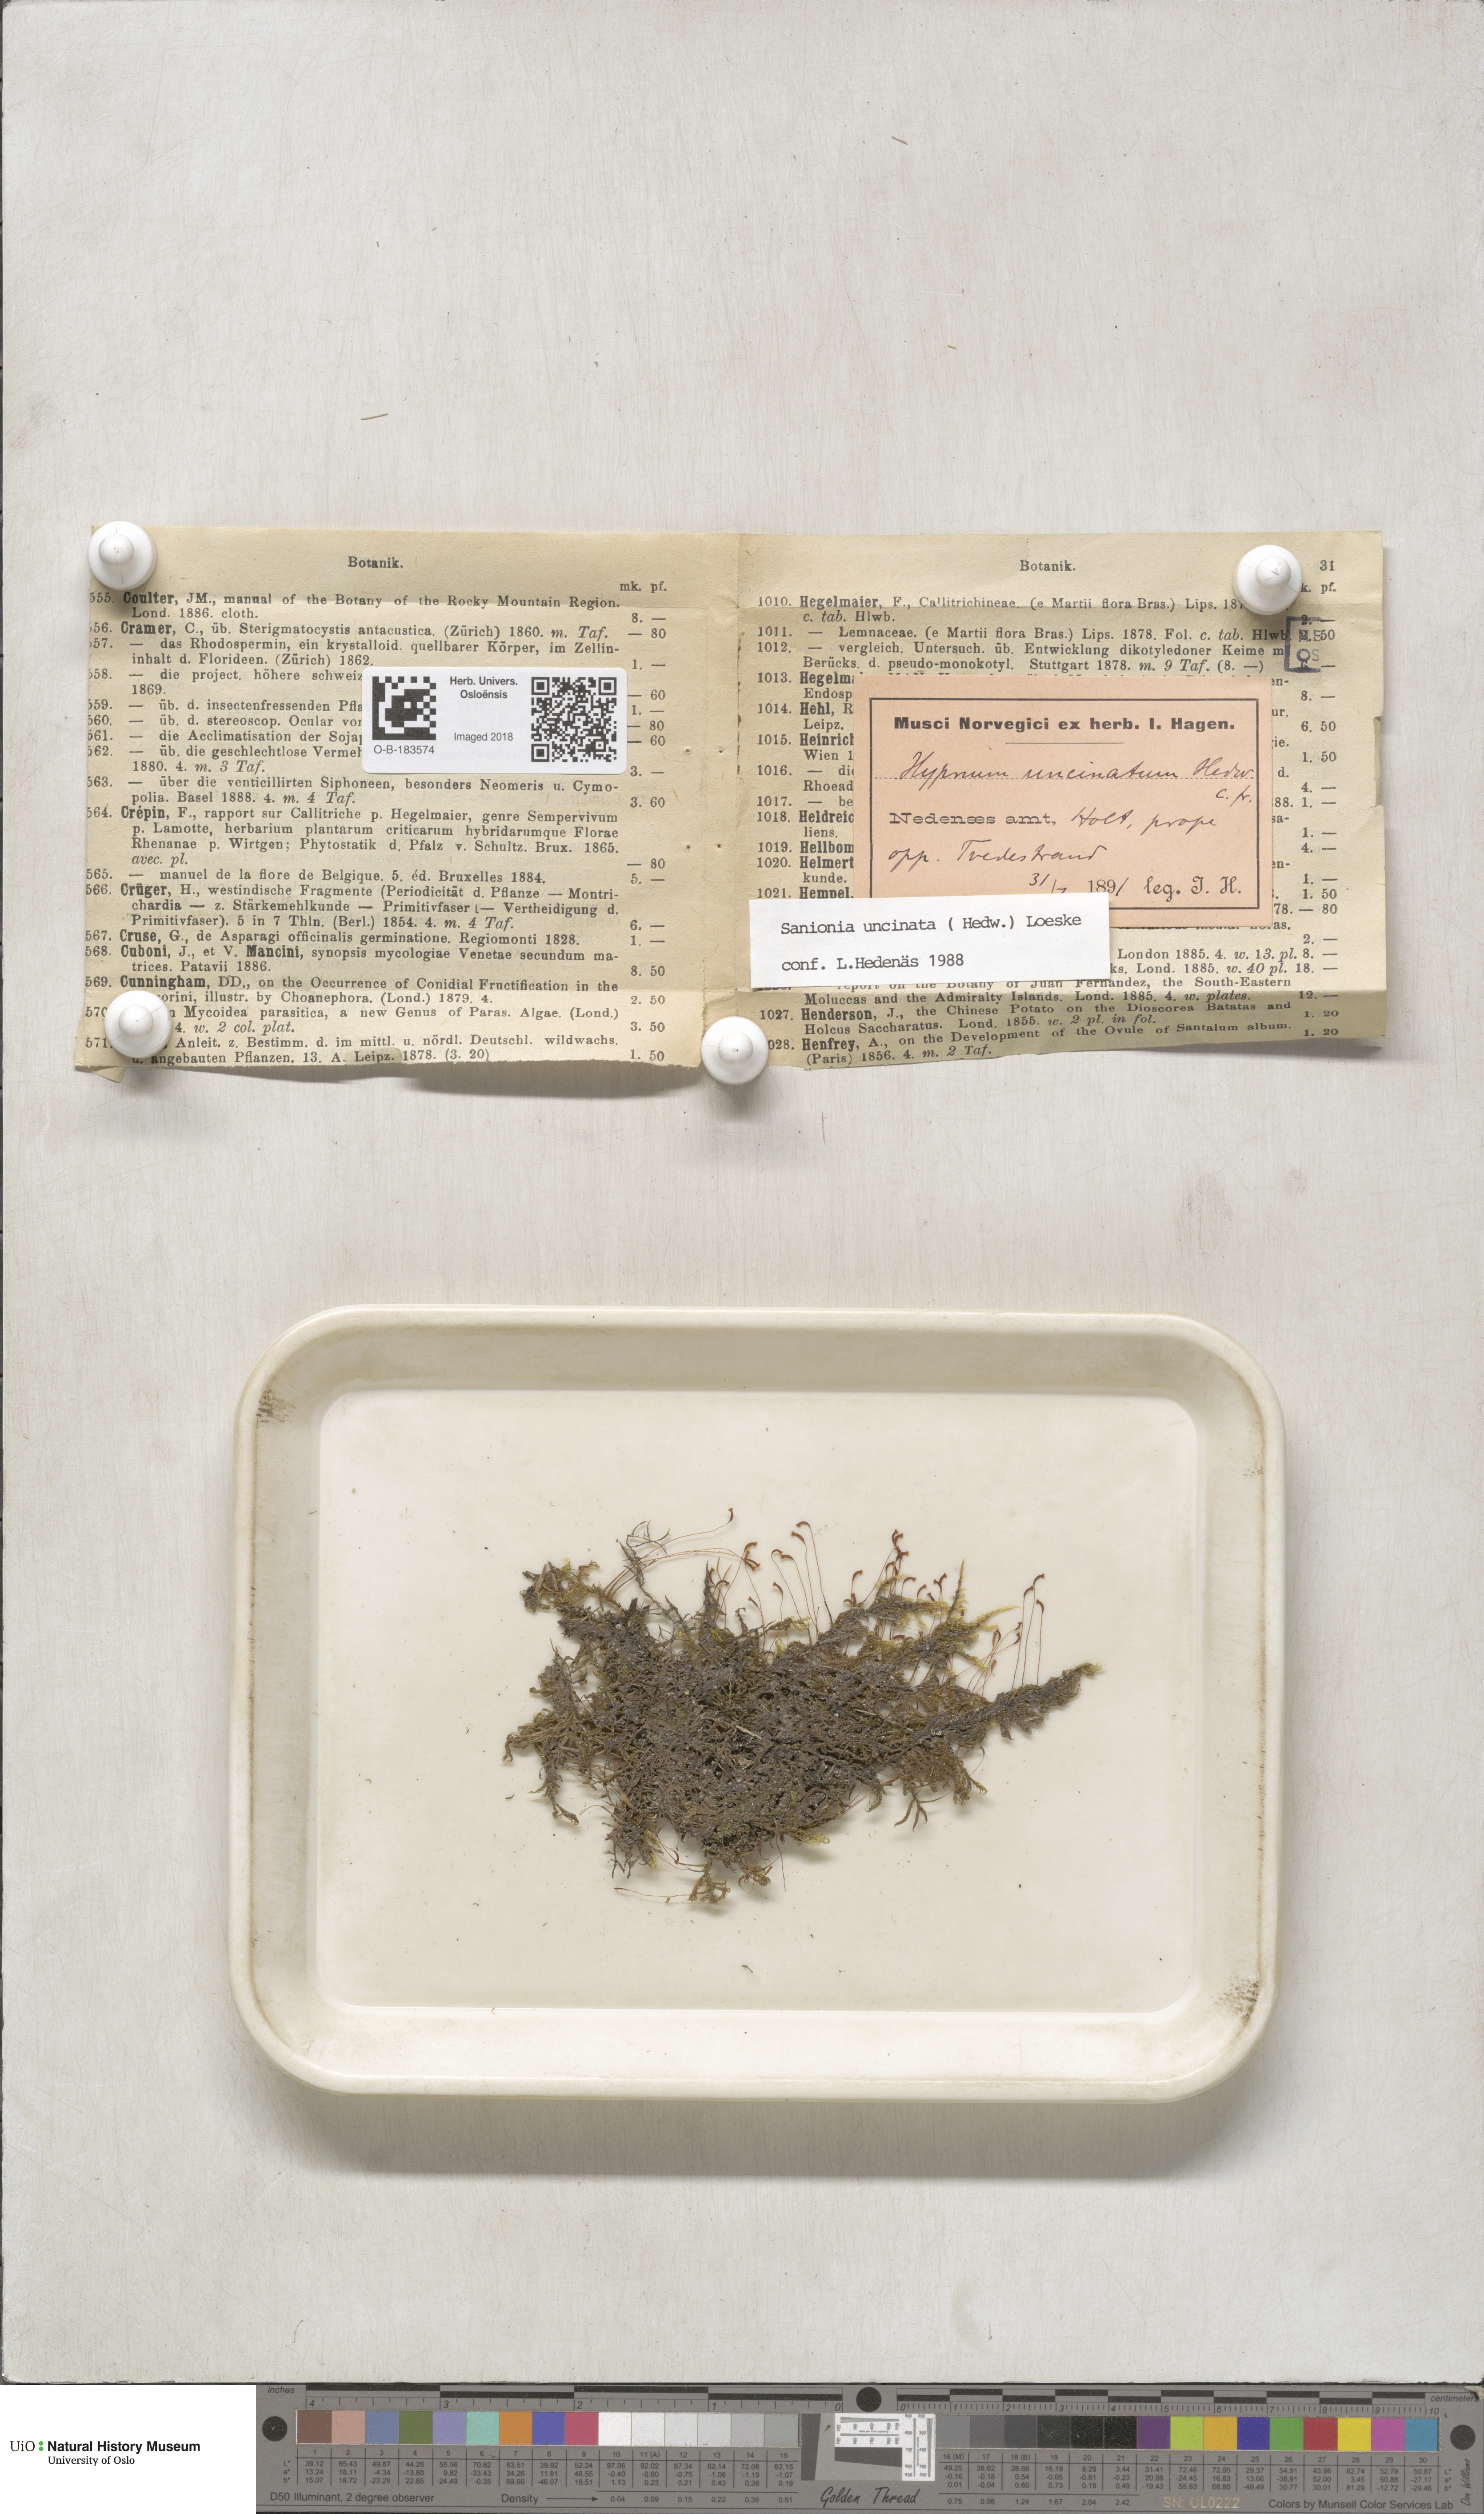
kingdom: Plantae
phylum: Bryophyta
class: Bryopsida
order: Hypnales
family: Scorpidiaceae
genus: Sanionia
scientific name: Sanionia uncinata
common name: Sickle moss
